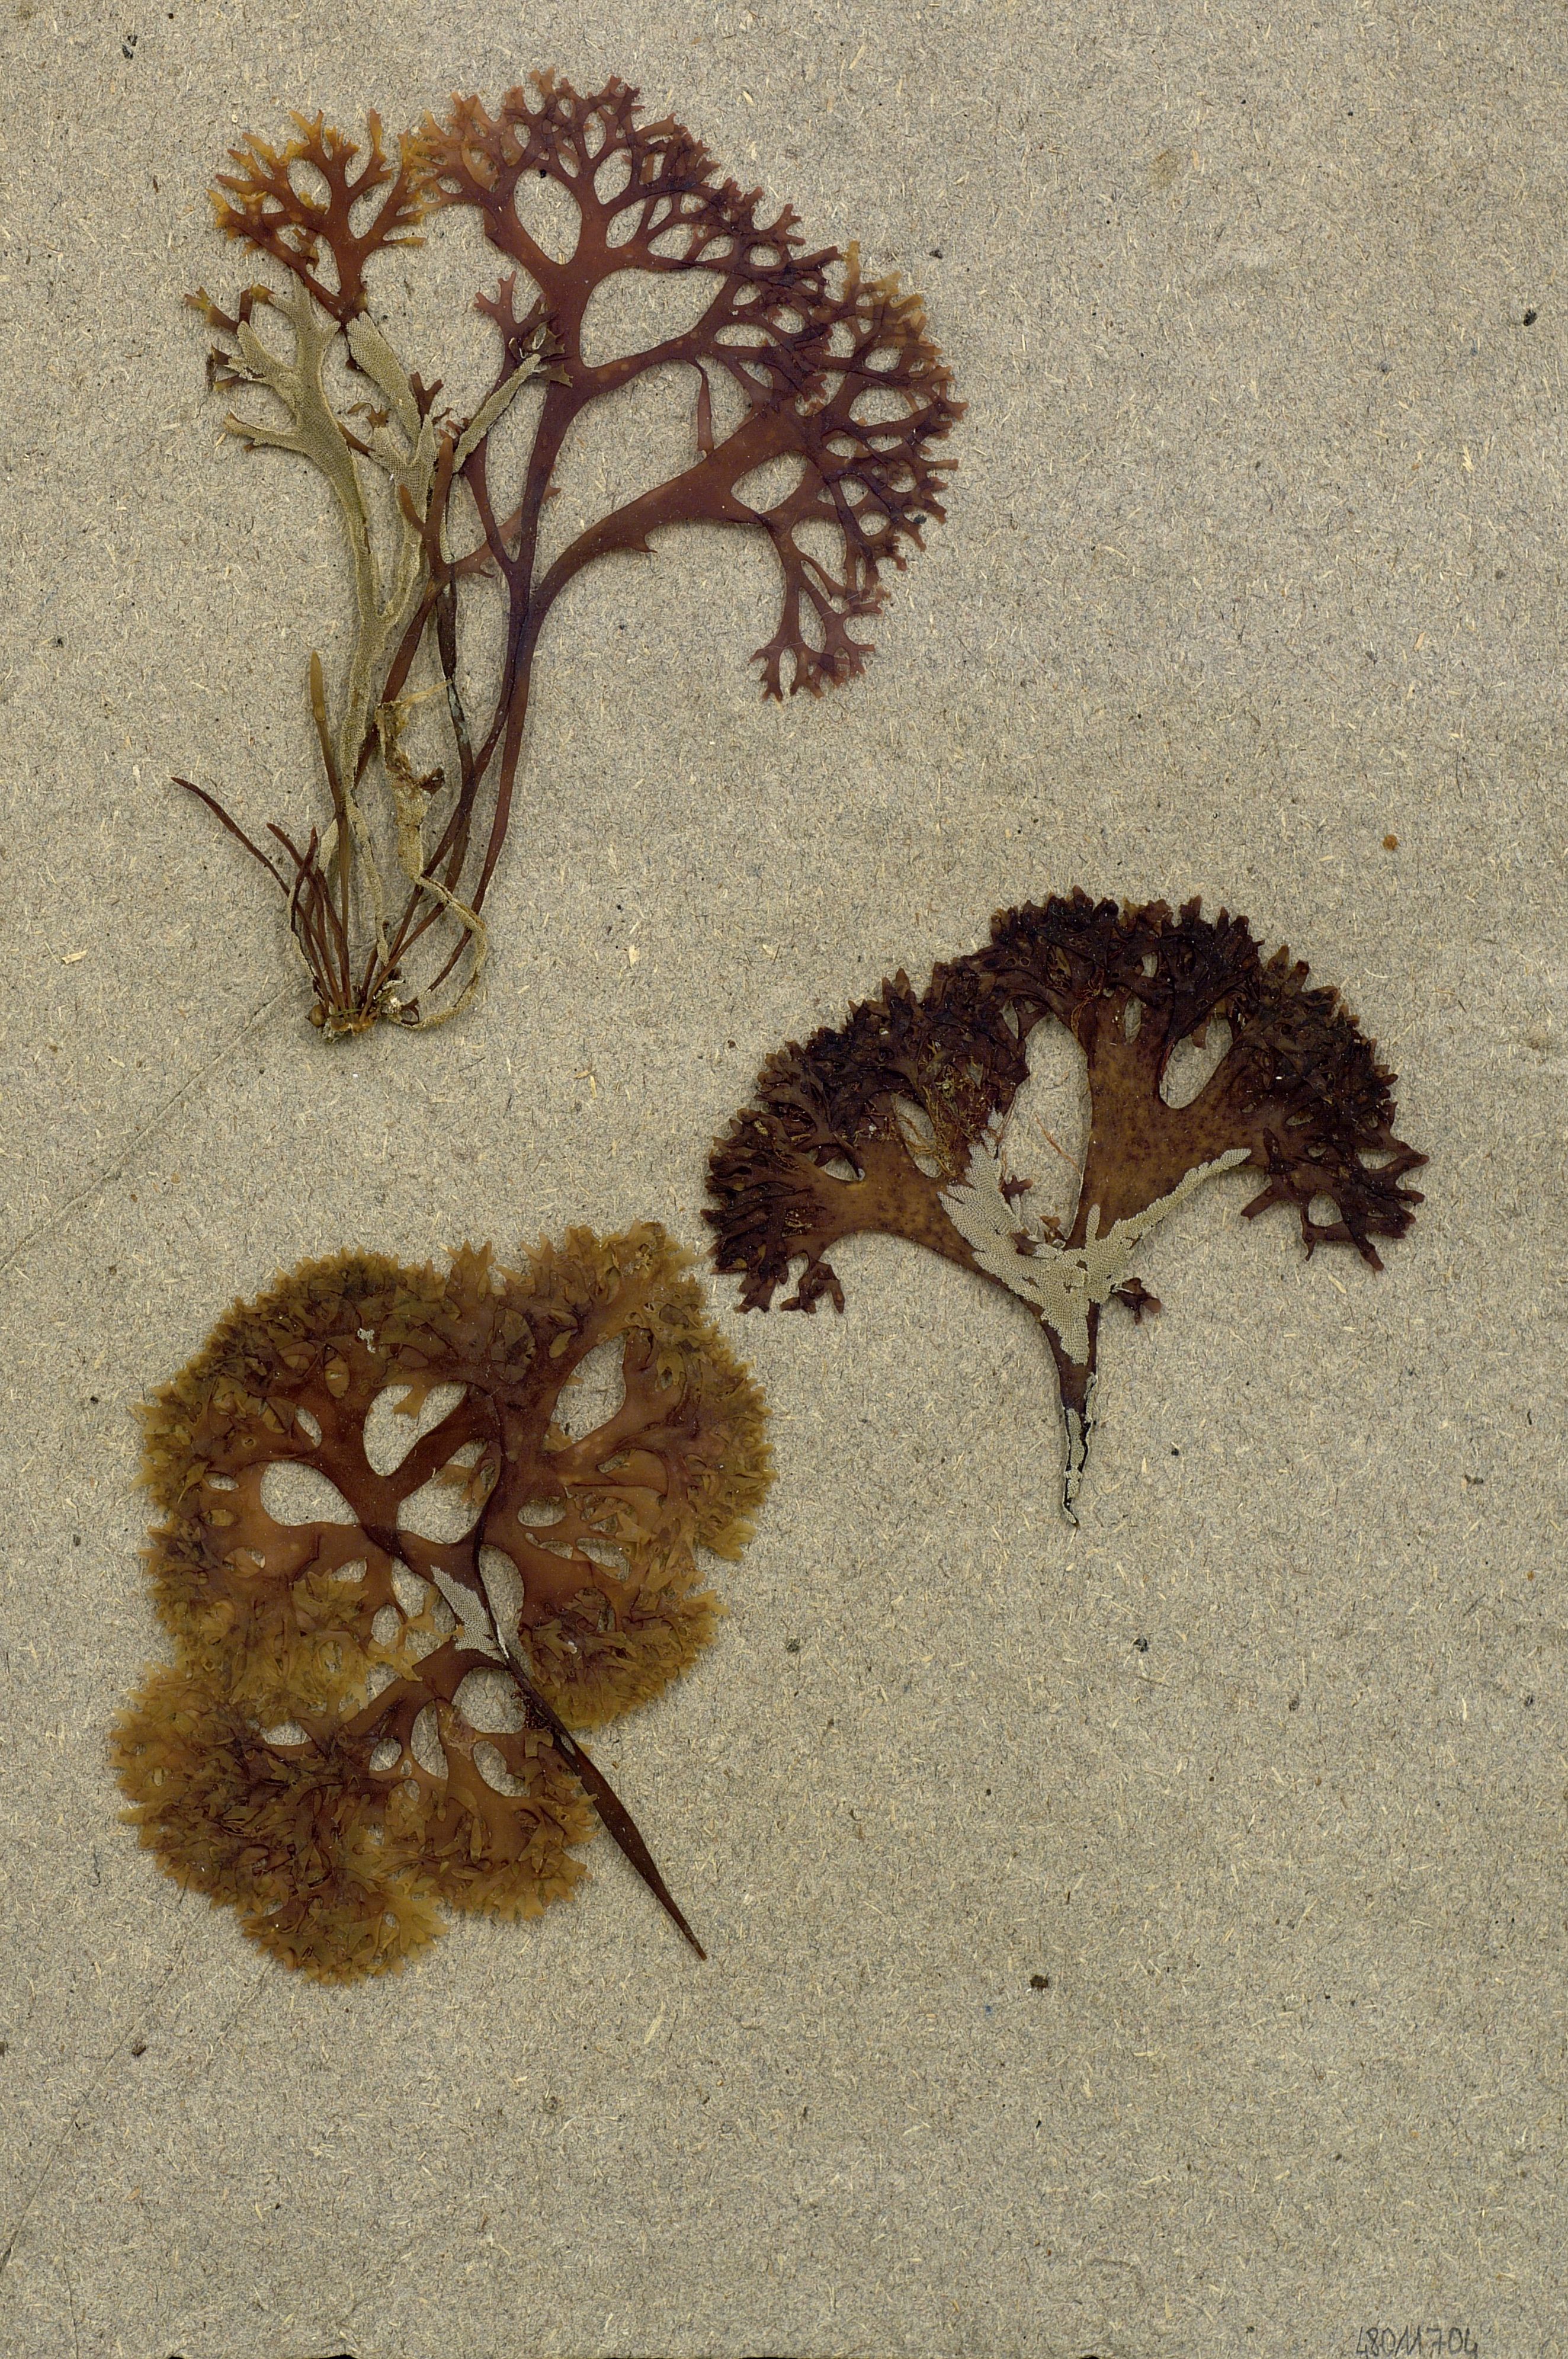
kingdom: Plantae
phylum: Chlorophyta
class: Ulvophyceae
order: Ulvales
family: Ulvaceae
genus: Ulva
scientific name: Ulva
